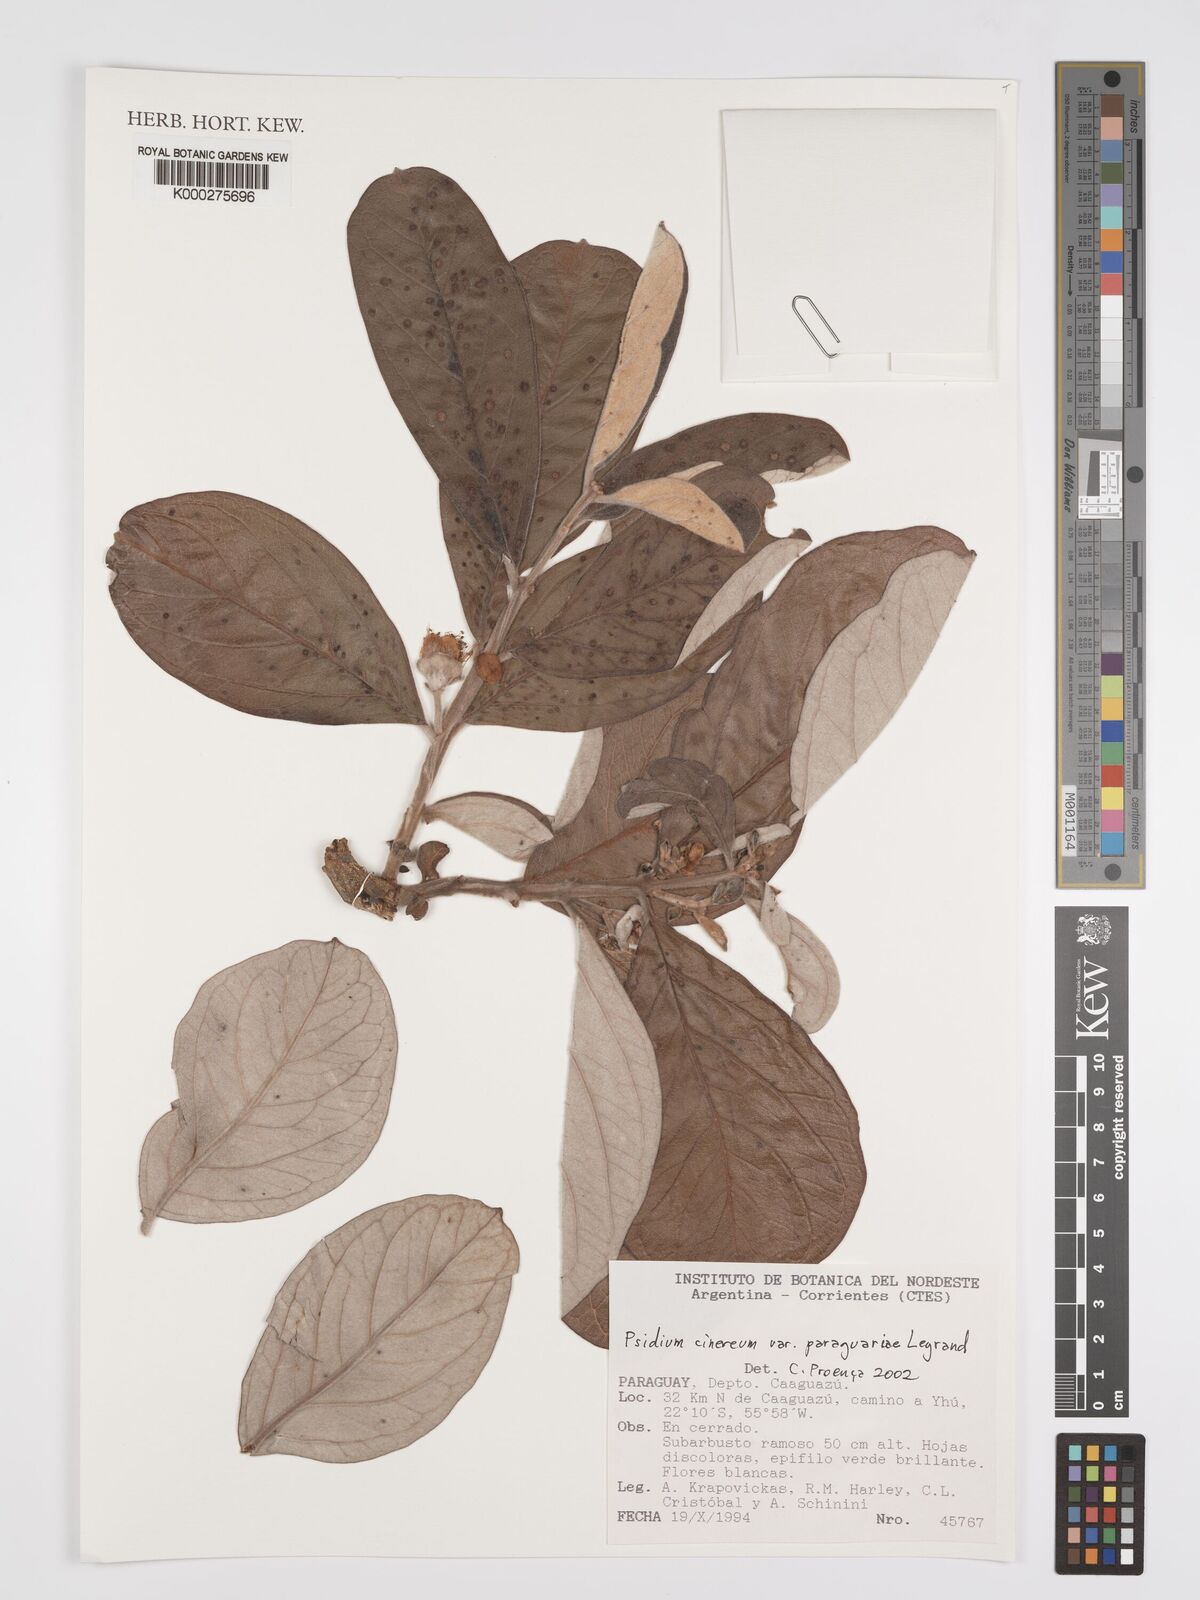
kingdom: Plantae
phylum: Tracheophyta
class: Magnoliopsida
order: Myrtales
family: Myrtaceae
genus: Psidium
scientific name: Psidium grandifolium
